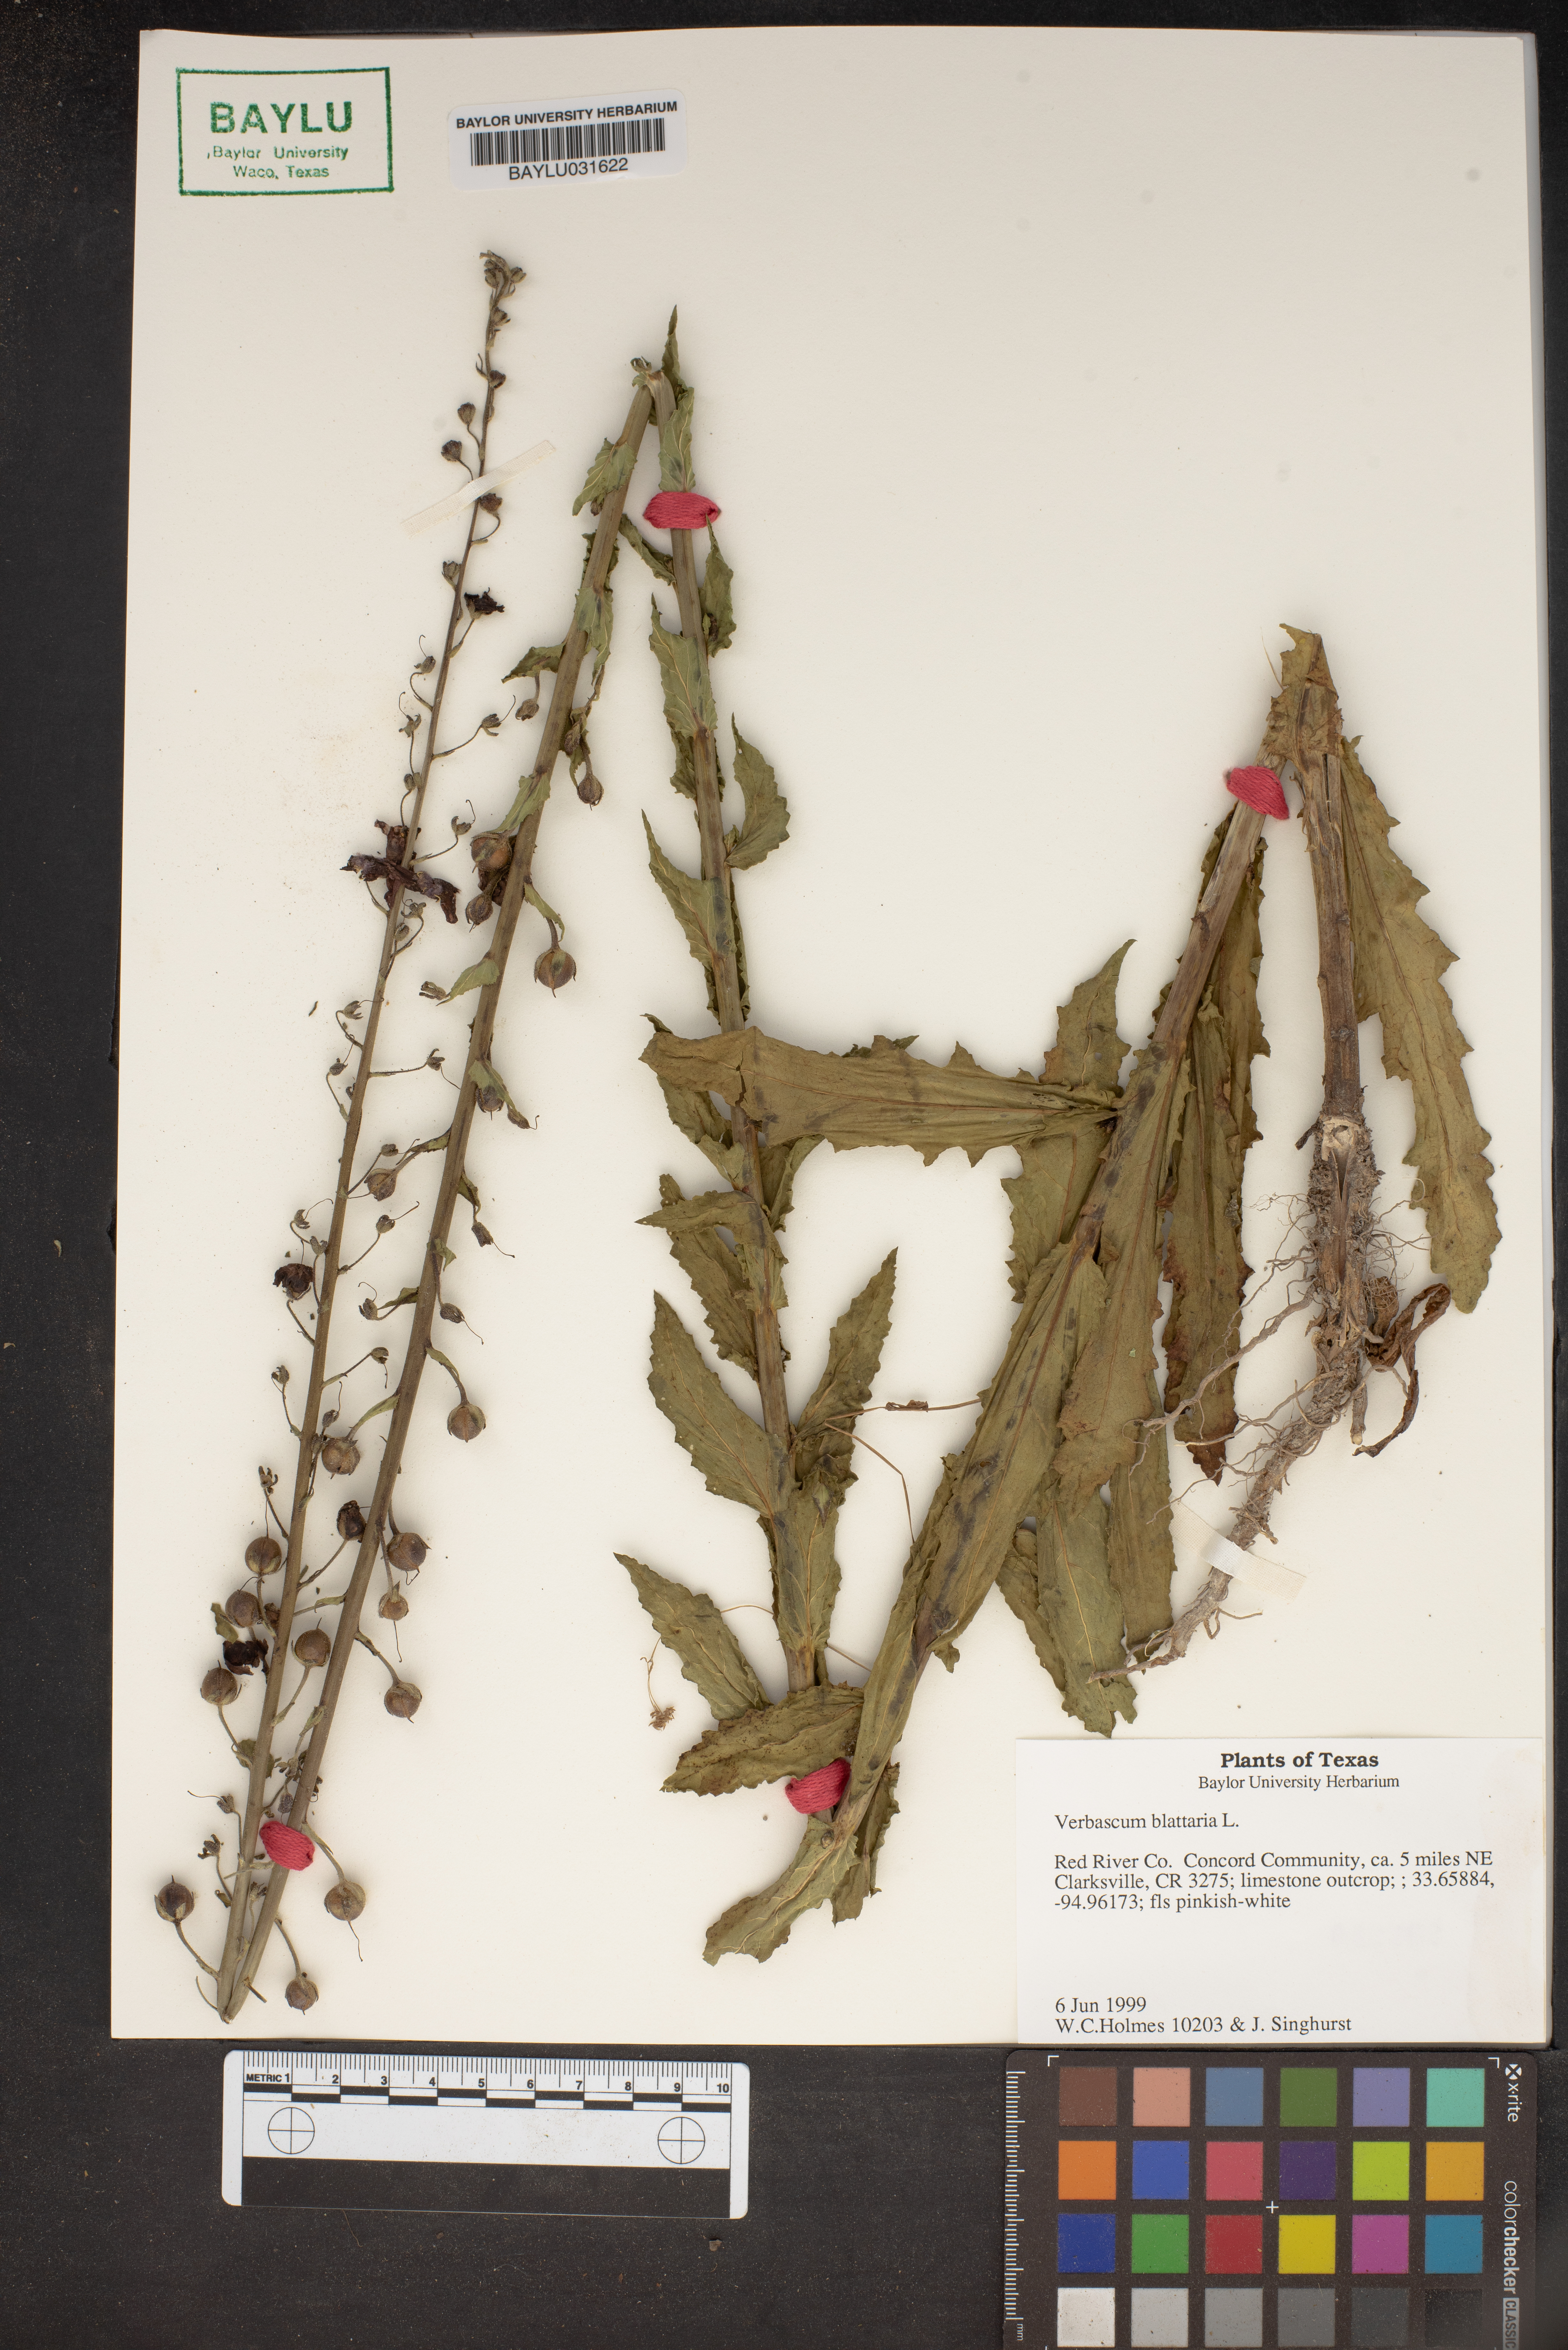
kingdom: Plantae
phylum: Tracheophyta
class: Magnoliopsida
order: Lamiales
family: Scrophulariaceae
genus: Verbascum
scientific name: Verbascum blattaria
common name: Moth mullein
